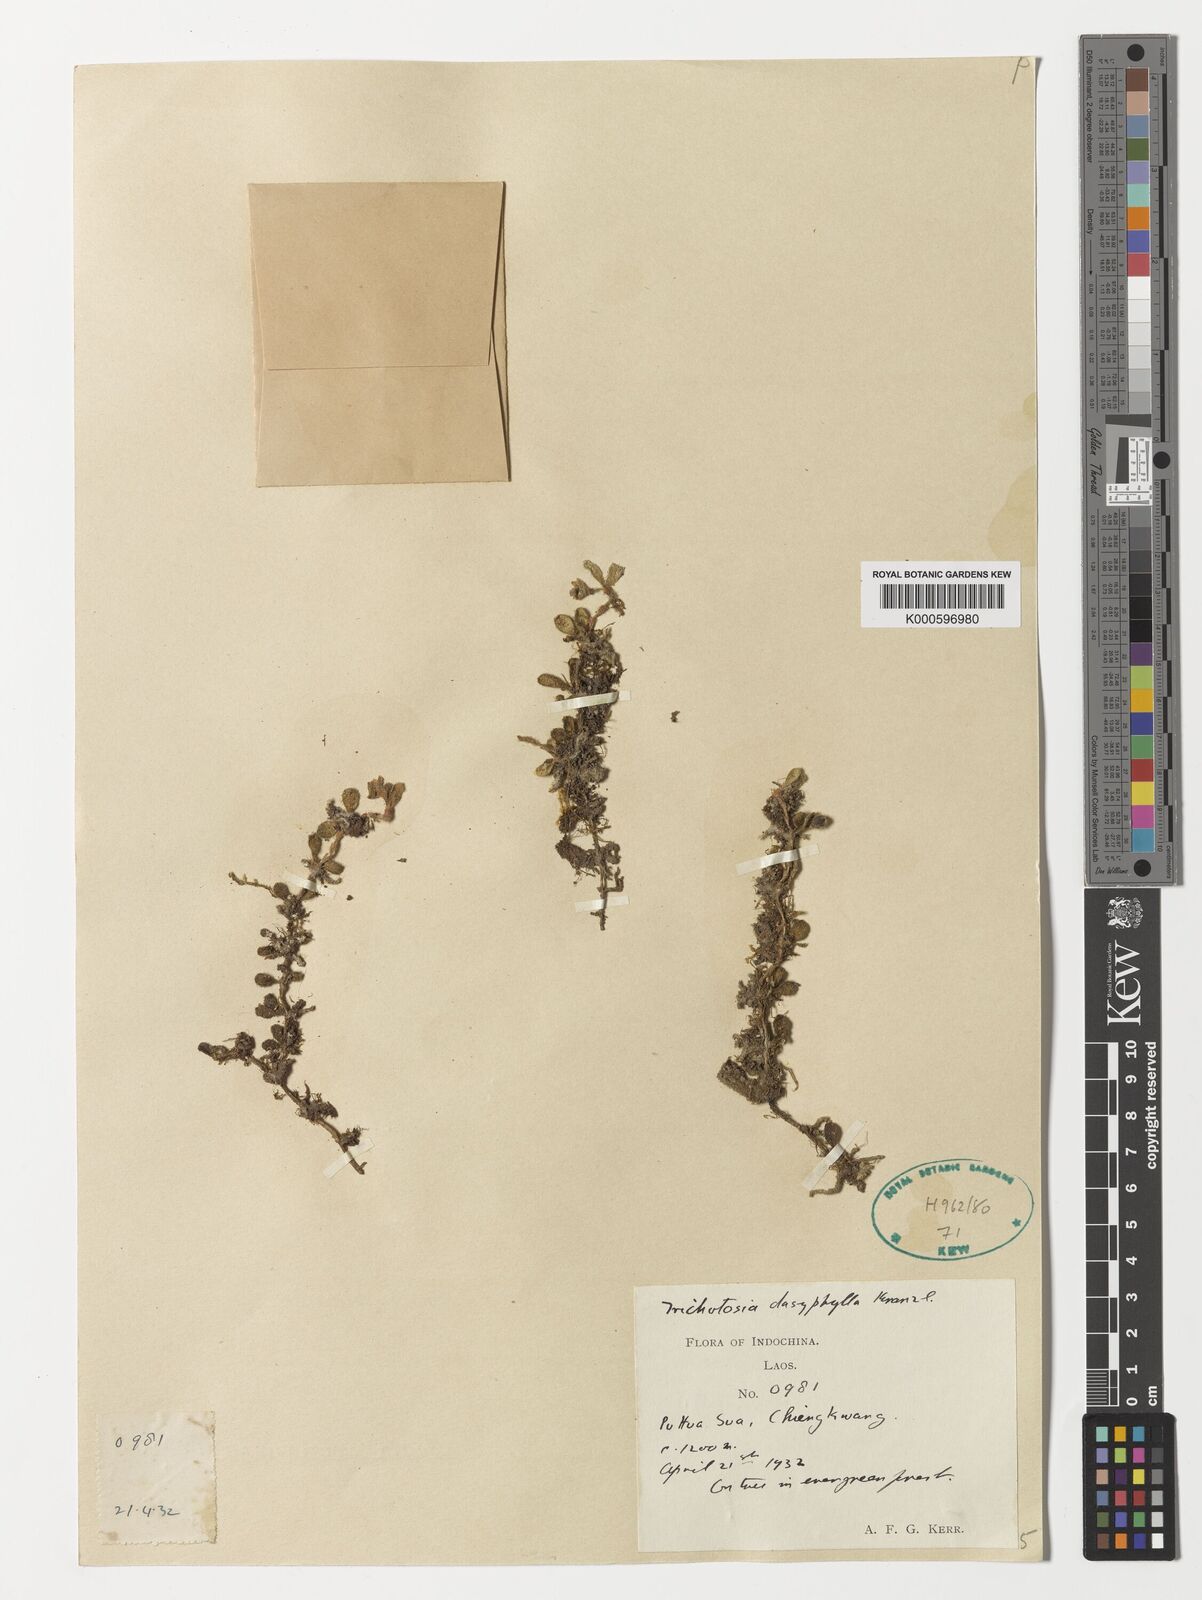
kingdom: Plantae
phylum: Tracheophyta
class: Liliopsida
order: Asparagales
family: Orchidaceae
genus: Trichotosia
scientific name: Trichotosia dasyphylla
